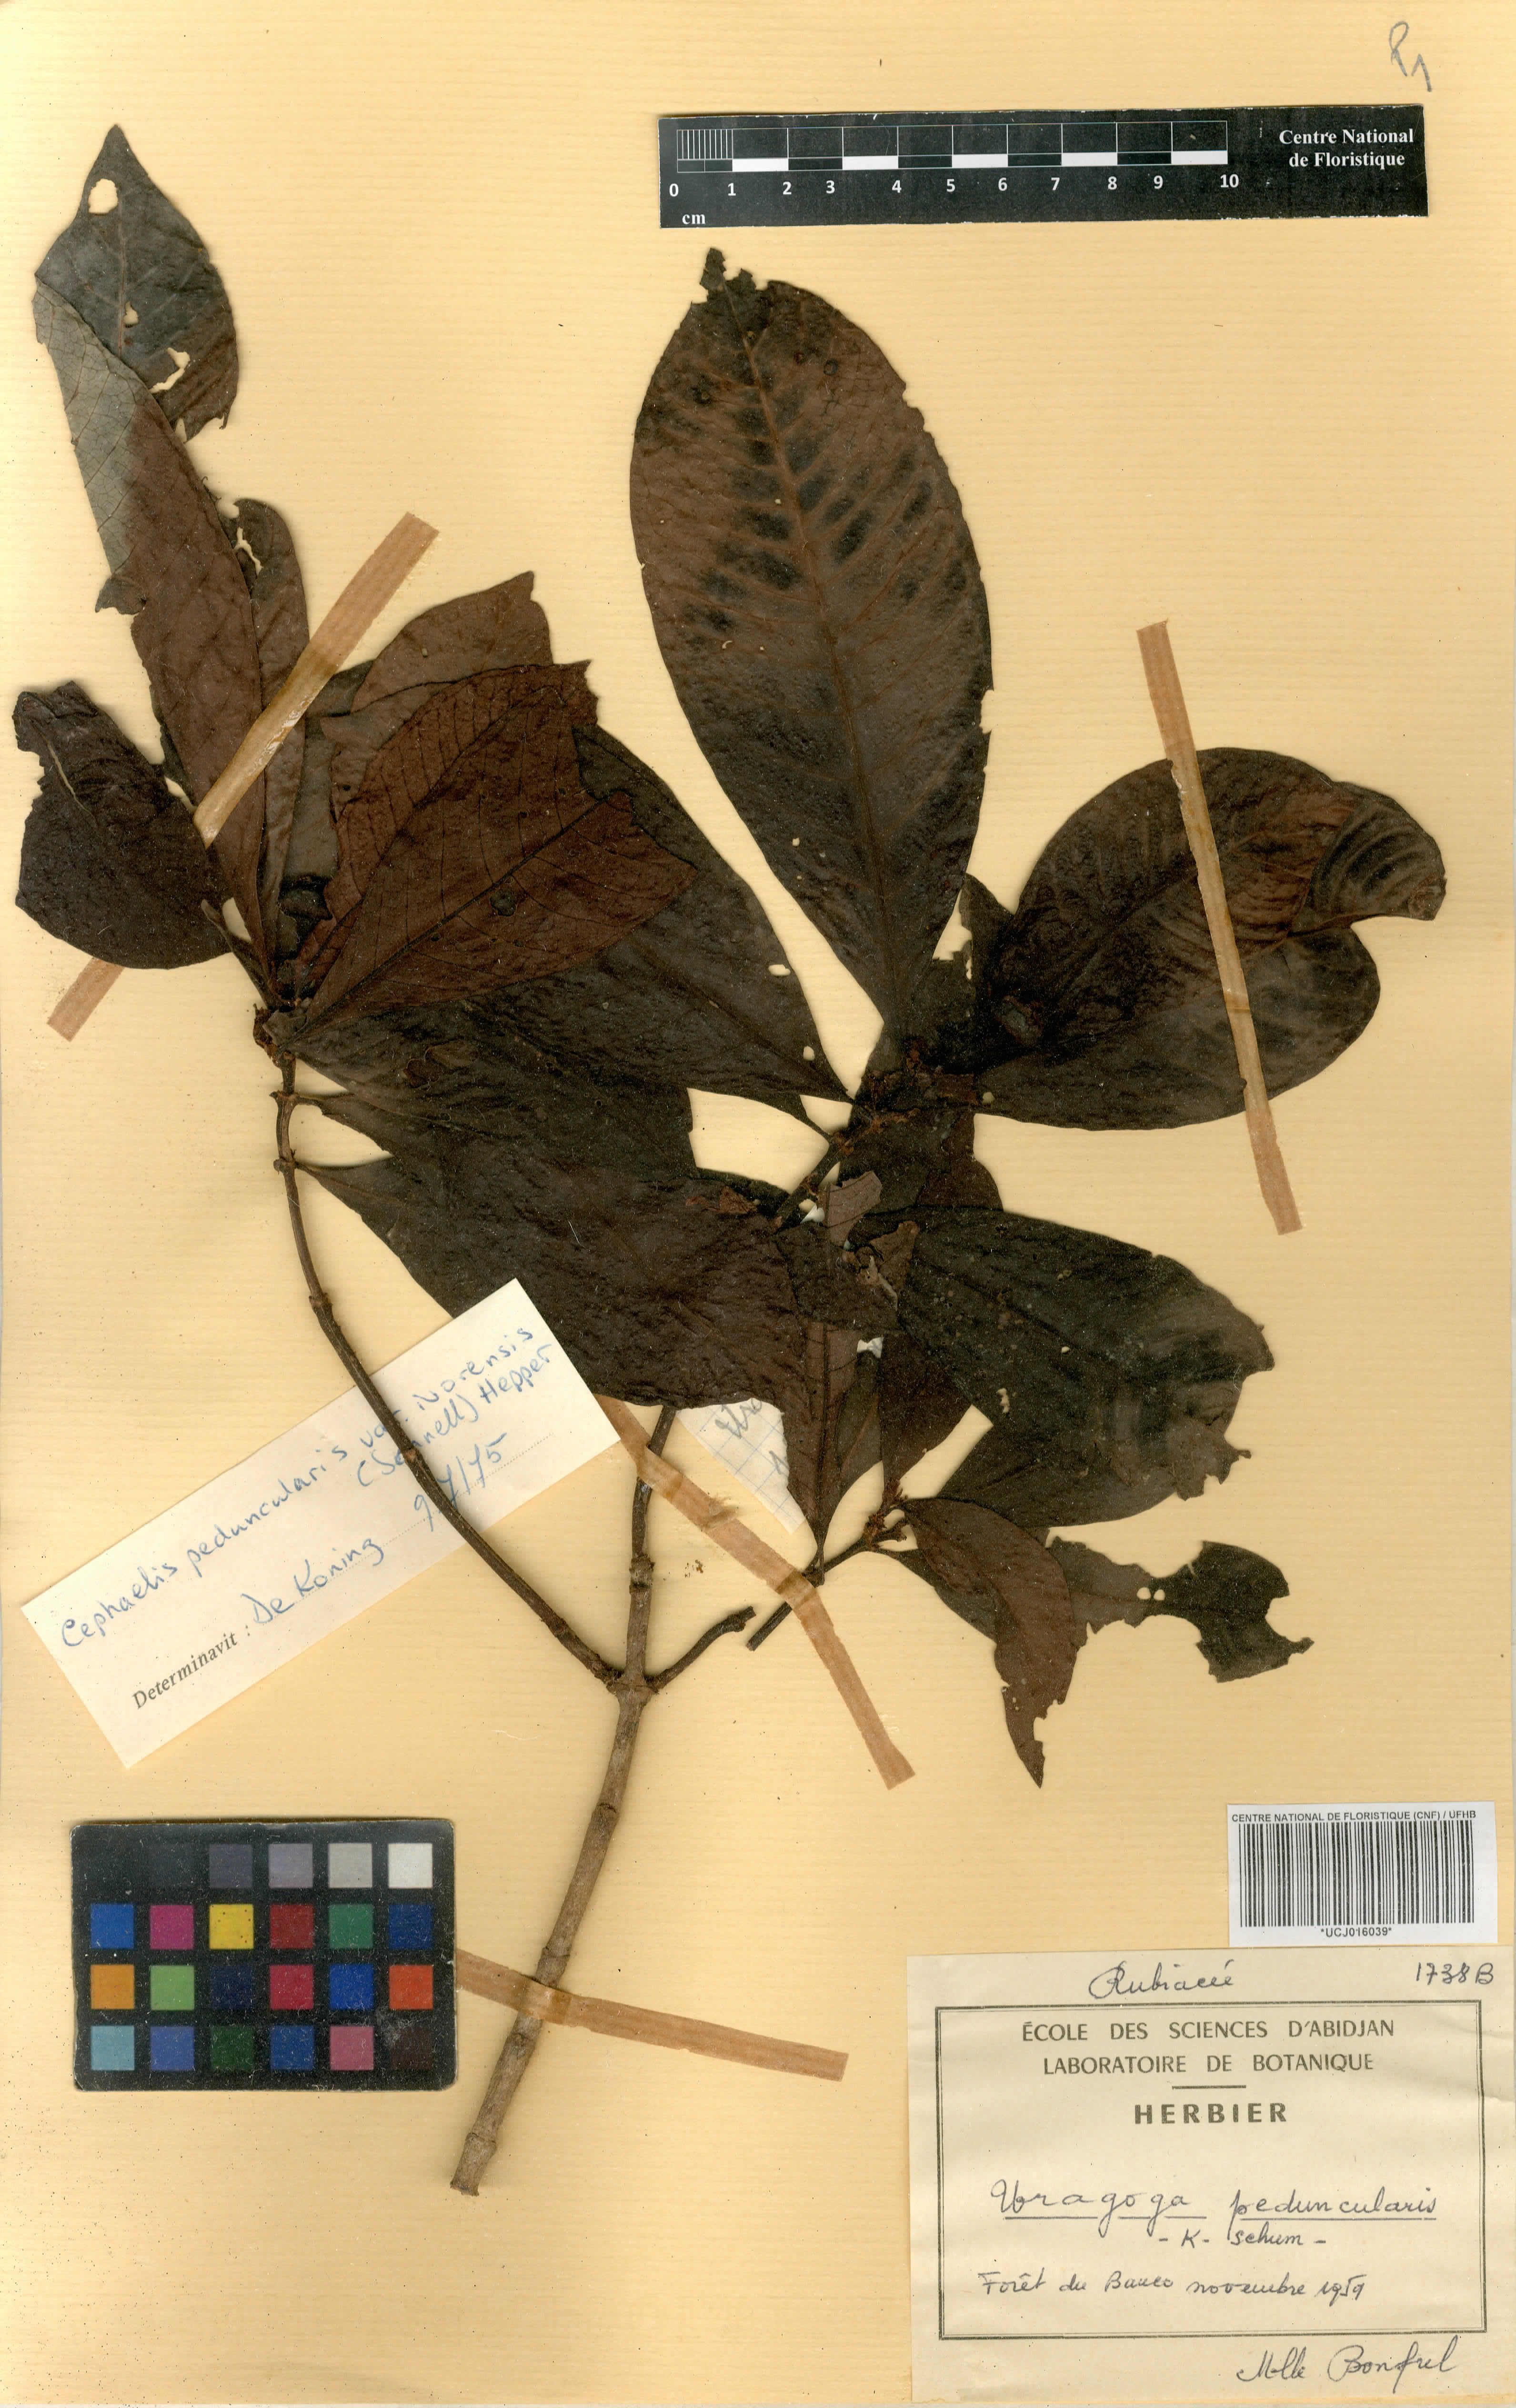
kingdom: Plantae
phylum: Tracheophyta
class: Magnoliopsida
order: Gentianales
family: Rubiaceae
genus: Psychotria
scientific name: Psychotria peduncularis
